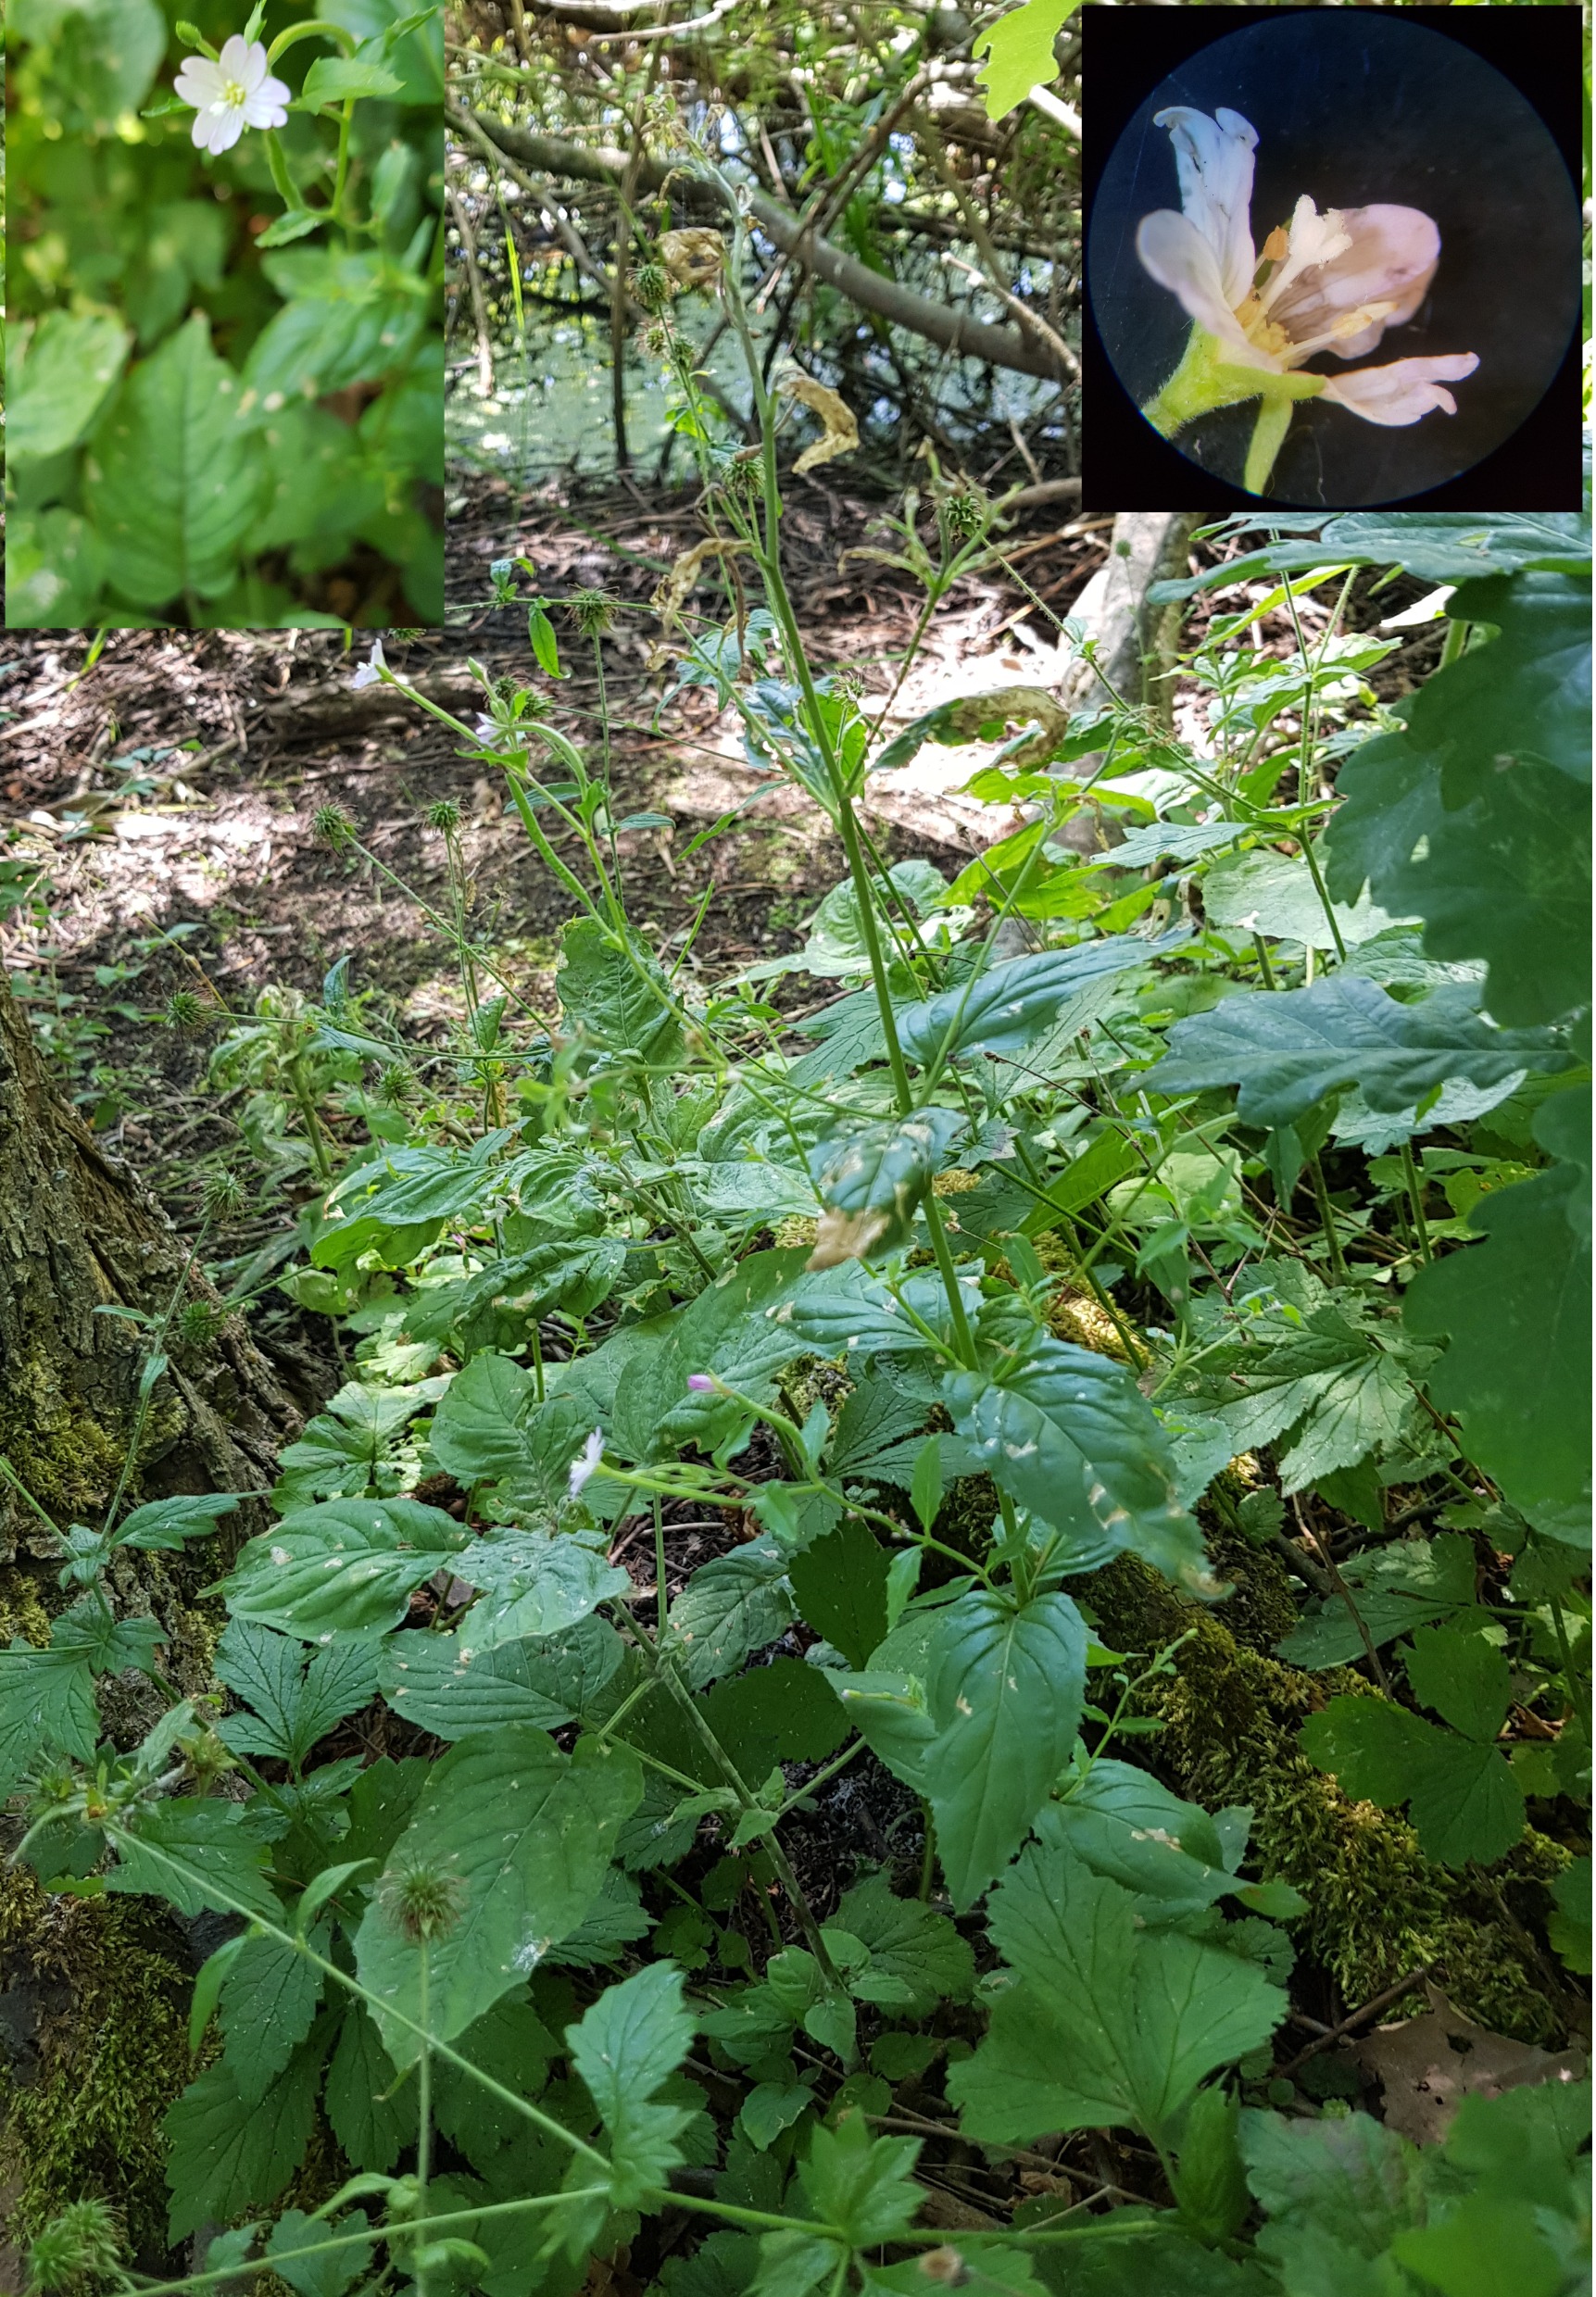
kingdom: Plantae
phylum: Tracheophyta
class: Magnoliopsida
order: Myrtales
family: Onagraceae
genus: Epilobium
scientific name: Epilobium montanum
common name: Glat dueurt
